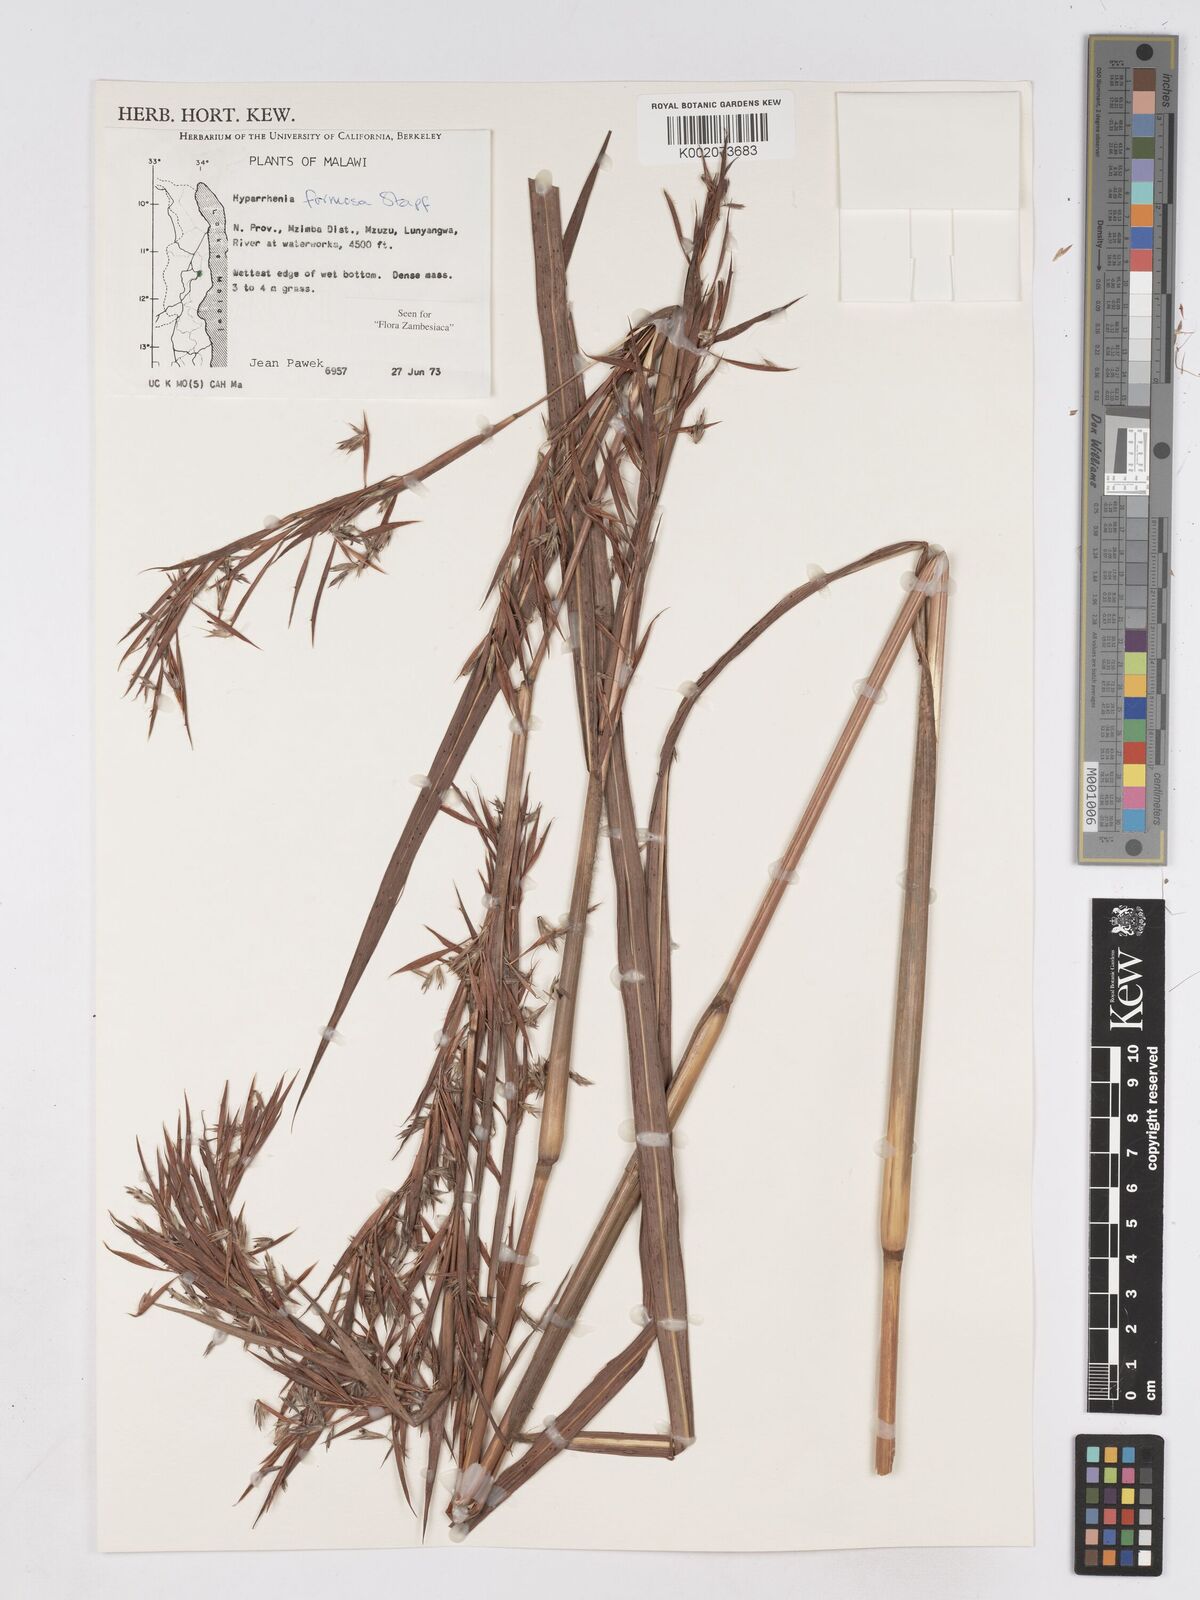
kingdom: Plantae
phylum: Tracheophyta
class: Liliopsida
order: Poales
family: Poaceae
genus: Hyparrhenia
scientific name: Hyparrhenia formosa
